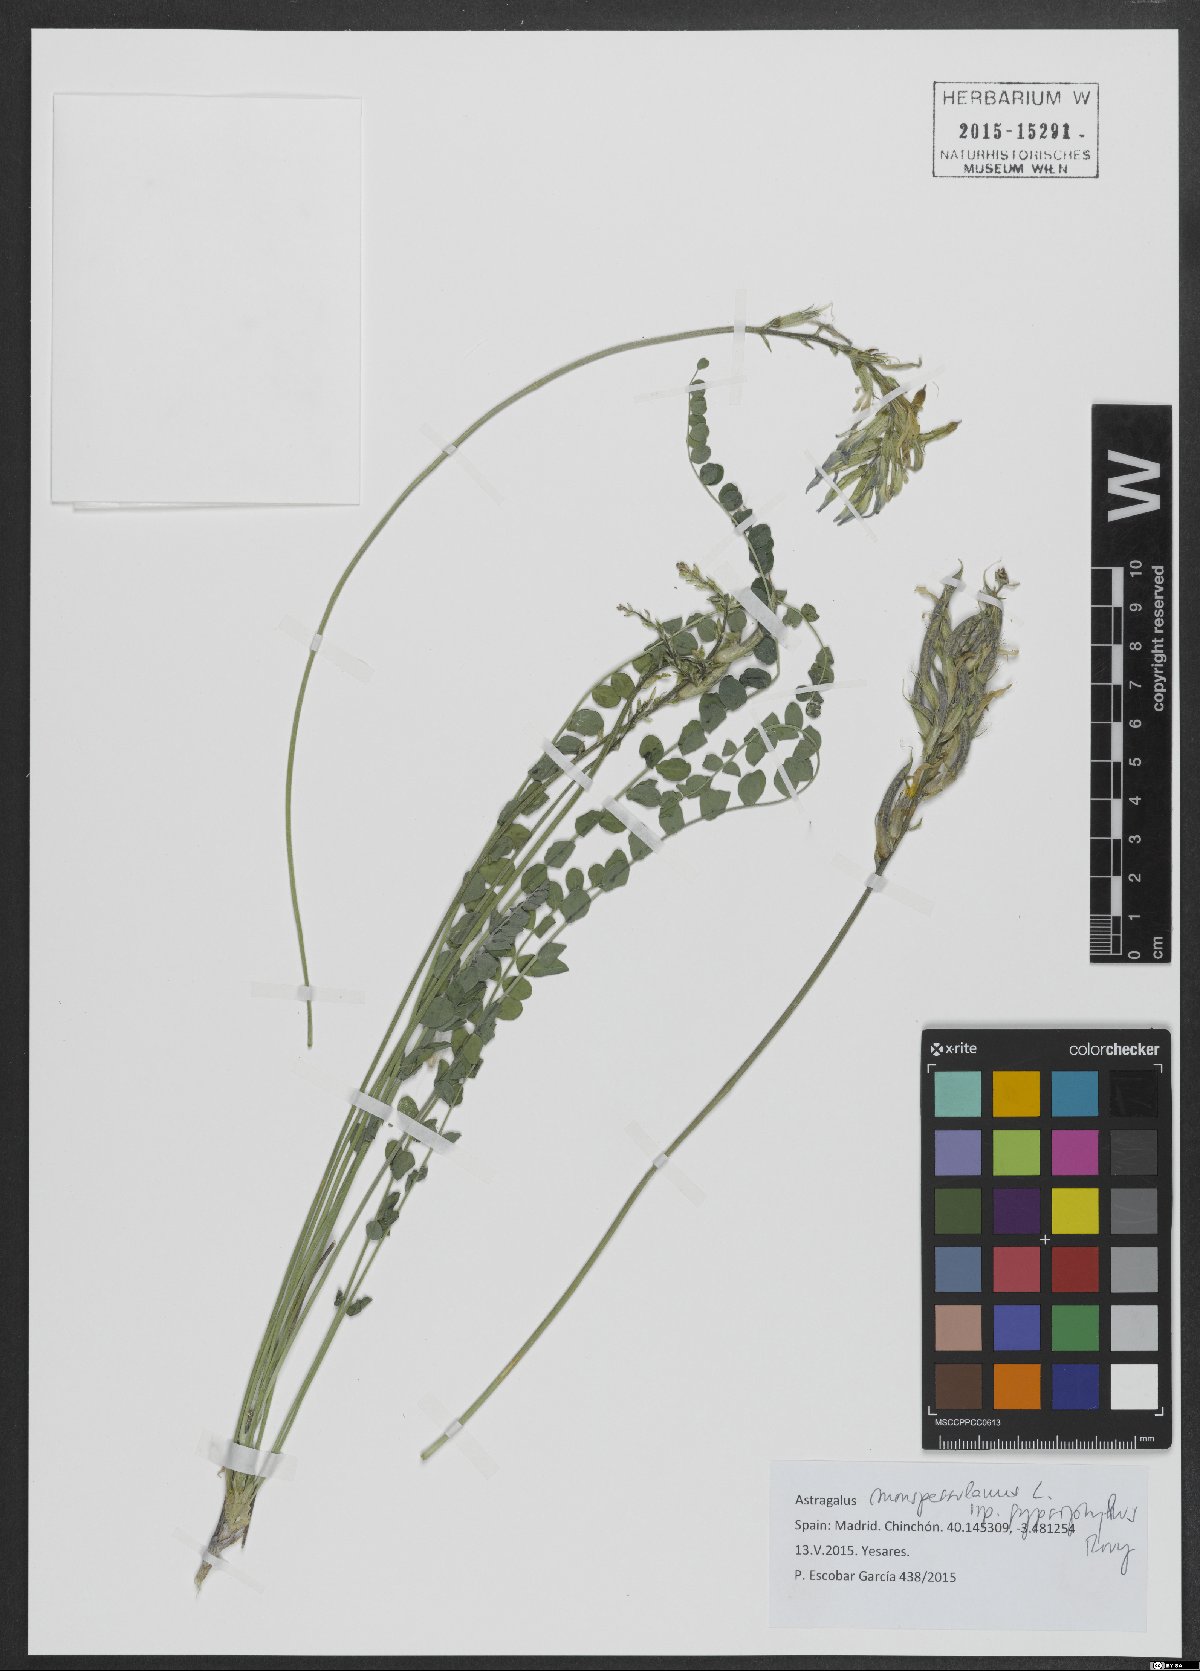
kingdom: Plantae
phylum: Tracheophyta
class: Magnoliopsida
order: Fabales
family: Fabaceae
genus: Astragalus
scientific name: Astragalus monspessulanus
